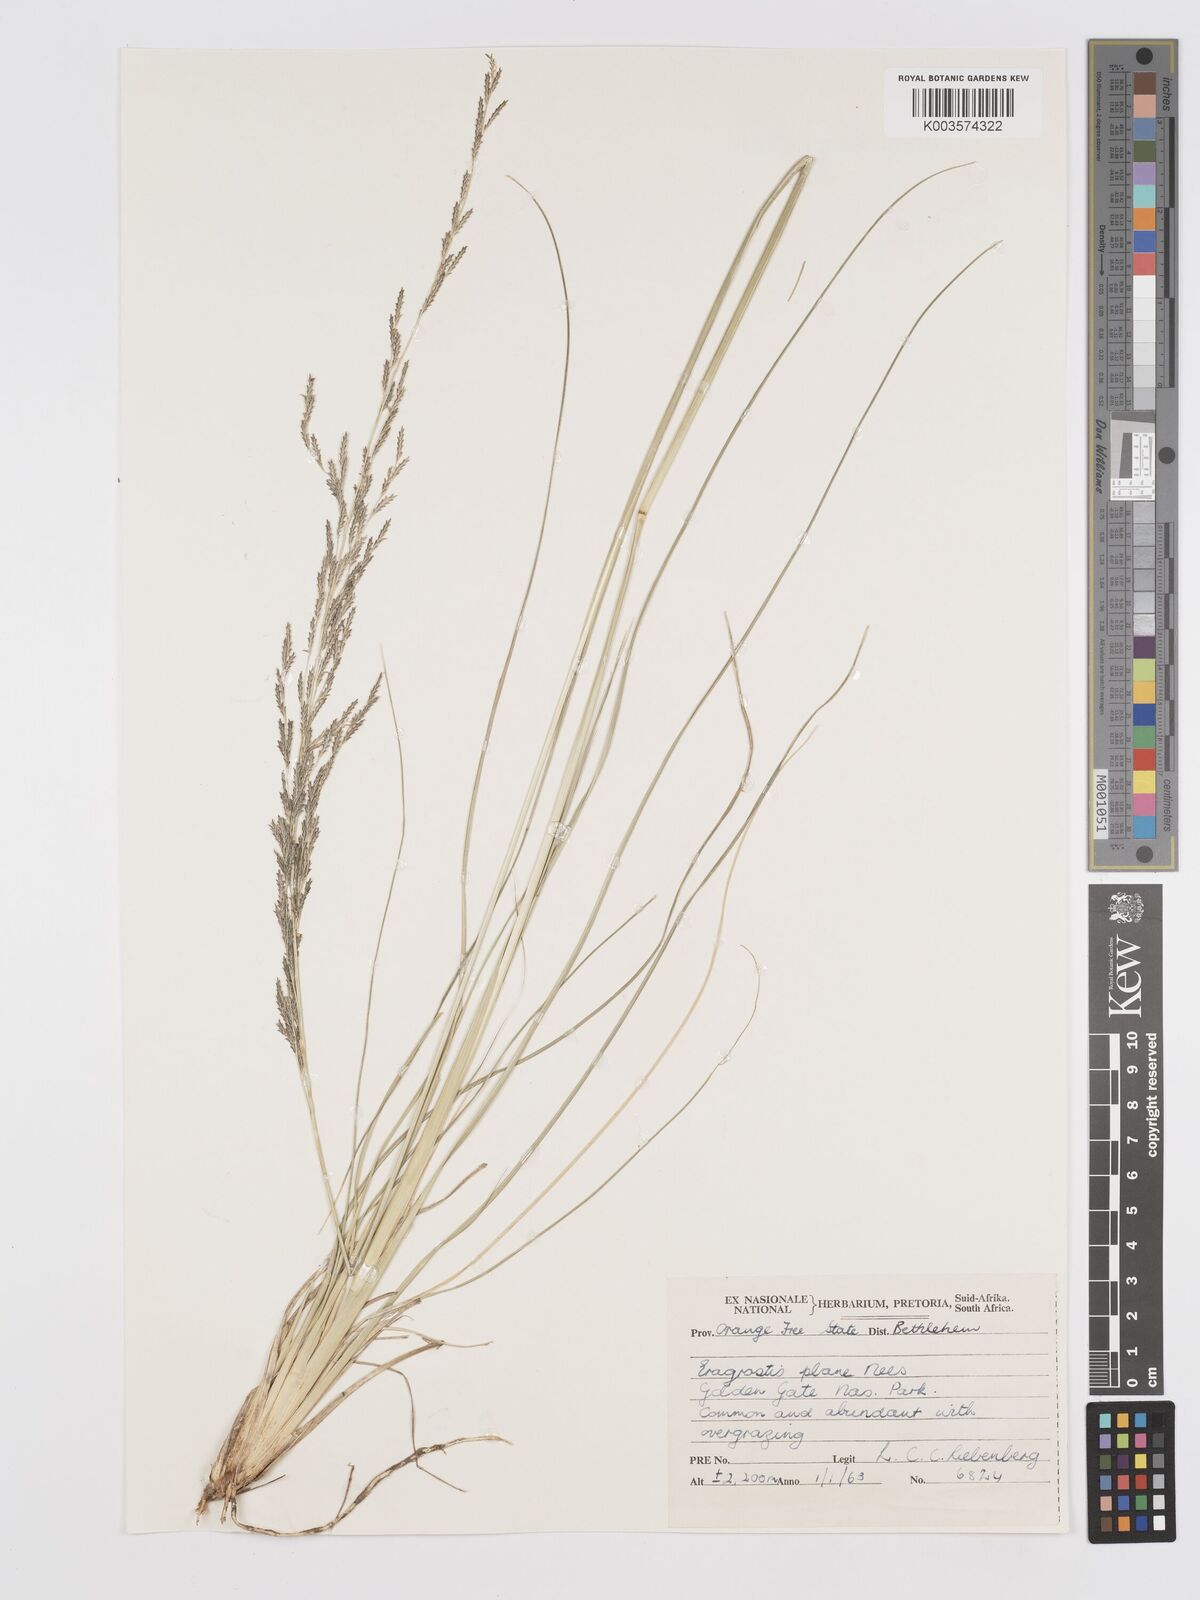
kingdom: Plantae
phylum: Tracheophyta
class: Liliopsida
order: Poales
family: Poaceae
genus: Eragrostis
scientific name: Eragrostis plana
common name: South african lovegrass
